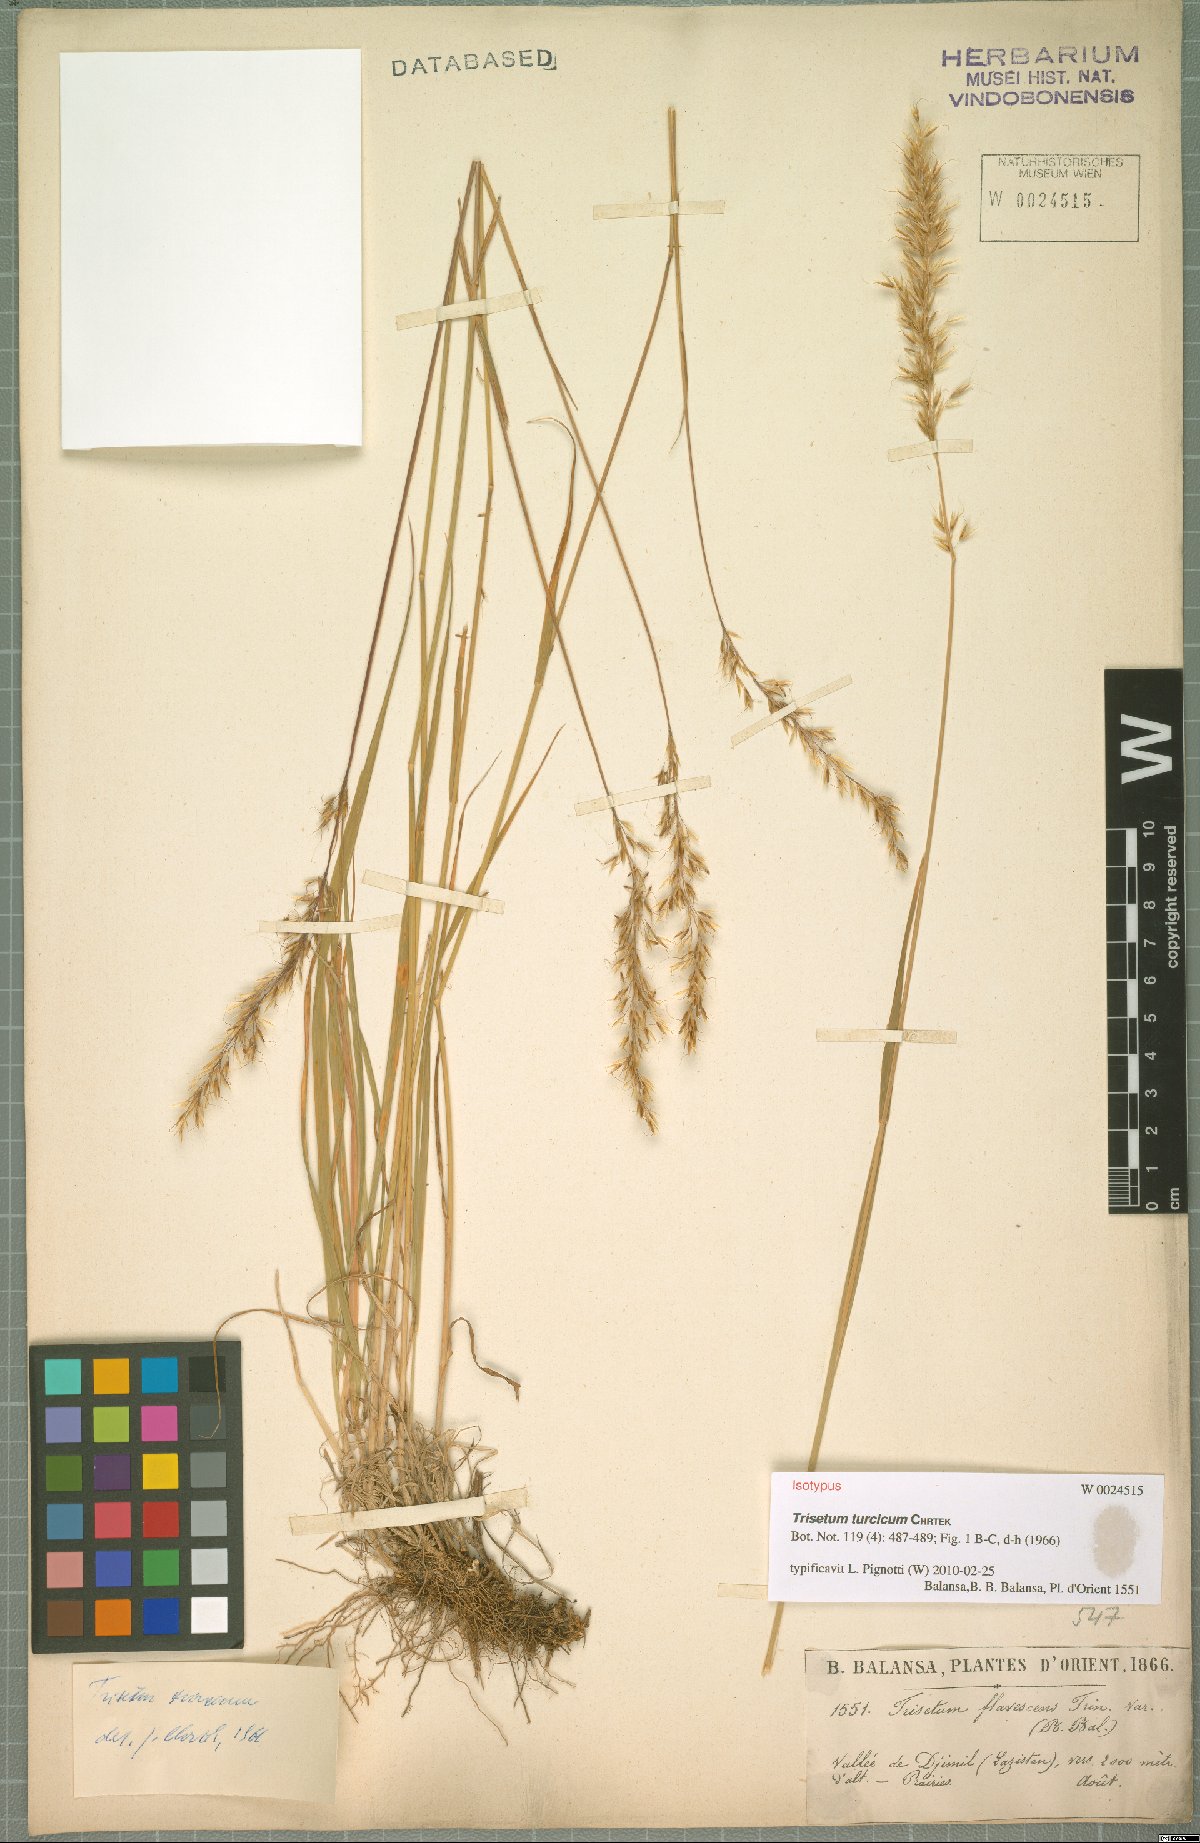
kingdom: Plantae
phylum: Tracheophyta
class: Liliopsida
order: Poales
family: Poaceae
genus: Sibirotrisetum
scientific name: Sibirotrisetum turcicum
